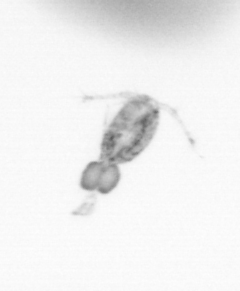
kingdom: Animalia
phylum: Arthropoda
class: Copepoda
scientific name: Copepoda
